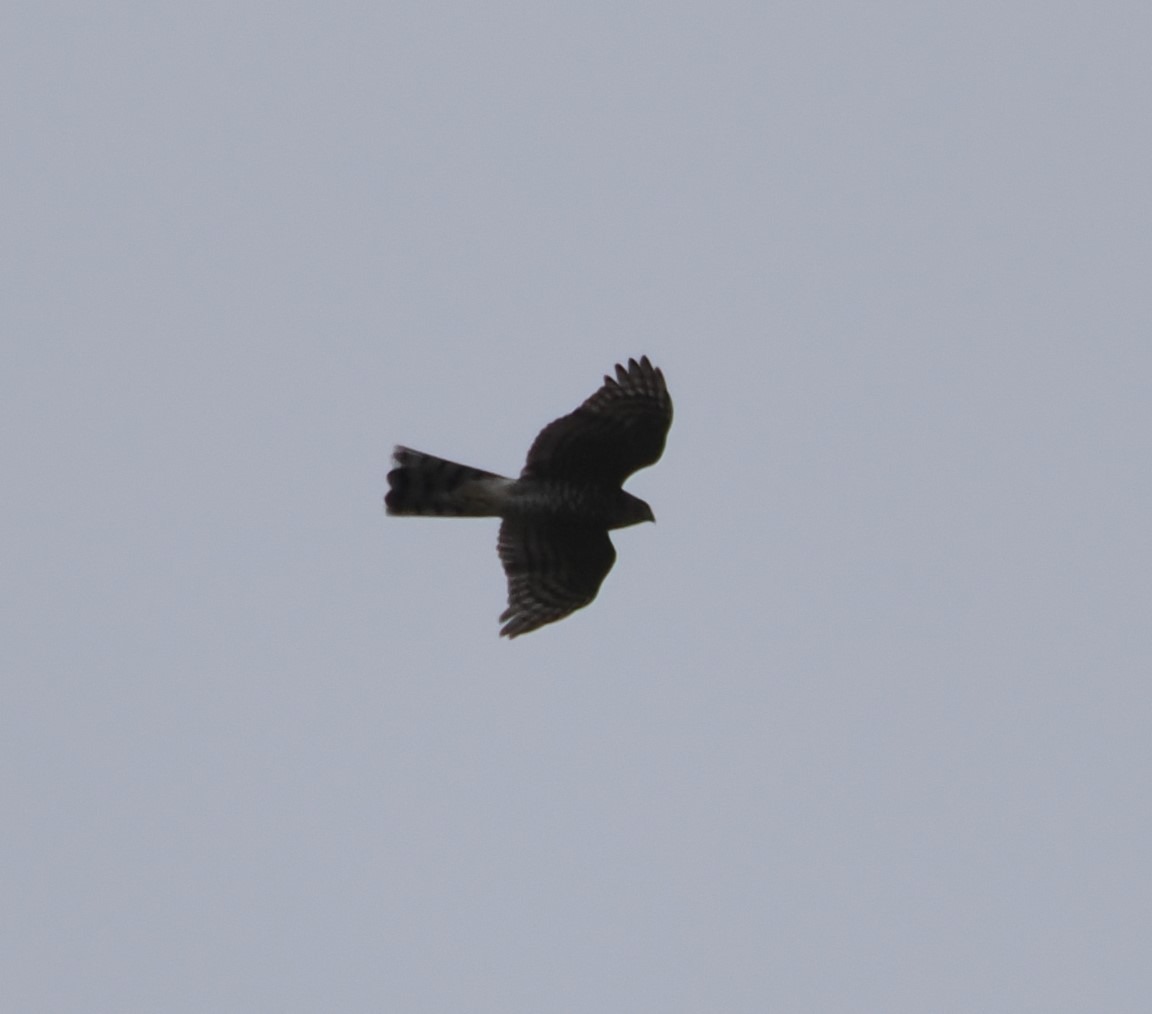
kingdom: Animalia
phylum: Chordata
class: Aves
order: Accipitriformes
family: Accipitridae
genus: Accipiter
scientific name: Accipiter nisus
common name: Spurvehøg
